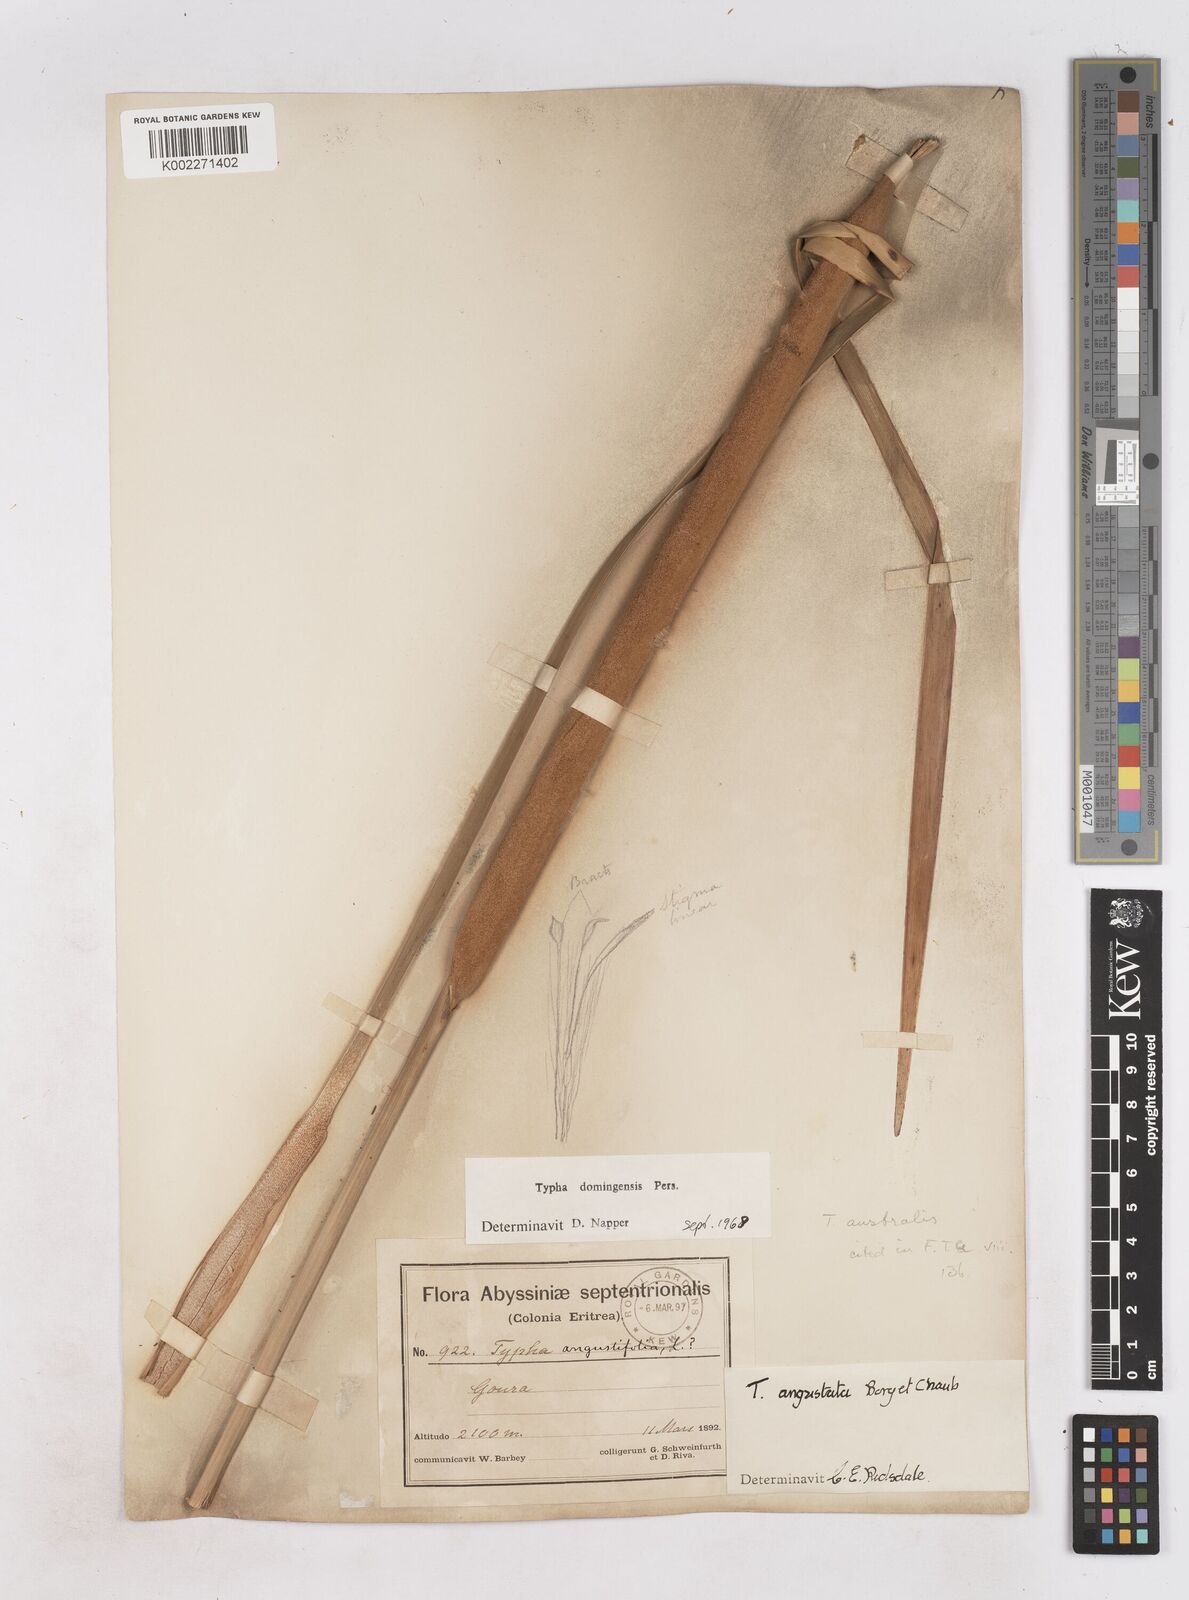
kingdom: Plantae
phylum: Tracheophyta
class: Liliopsida
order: Poales
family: Typhaceae
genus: Typha
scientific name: Typha domingensis
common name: Southern cattail
